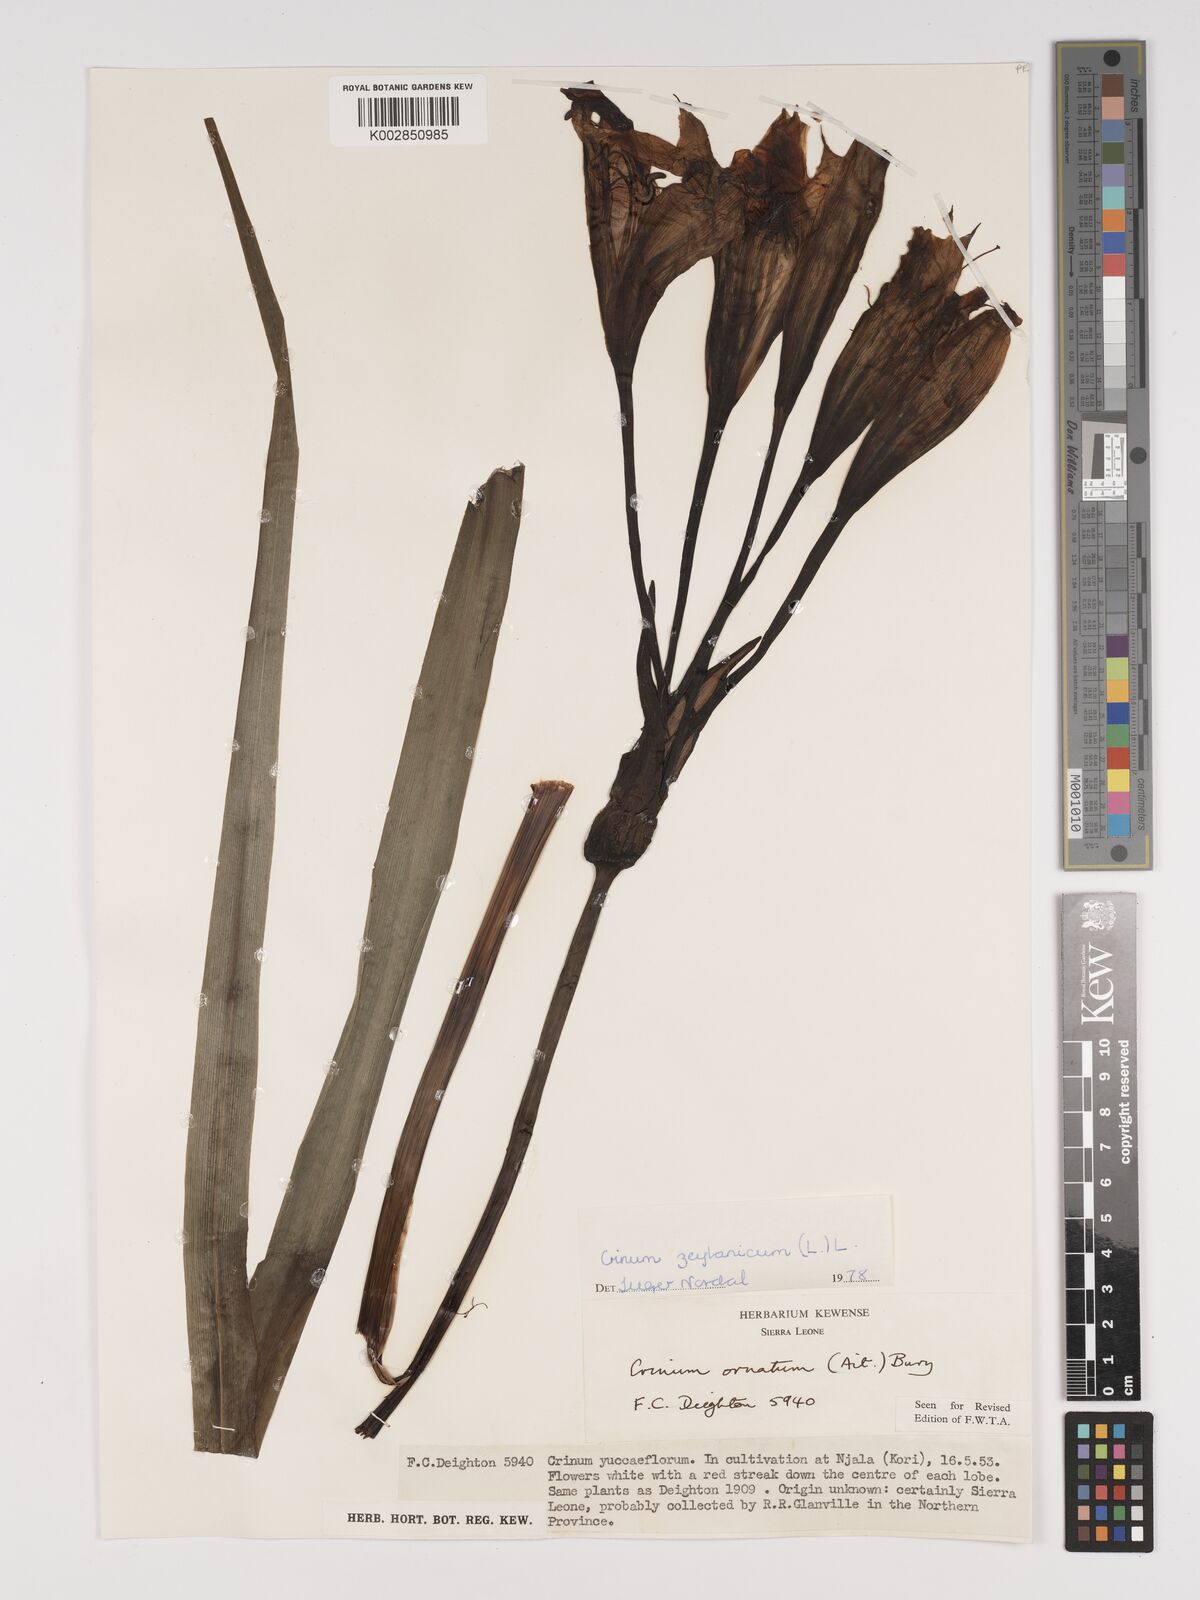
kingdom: Plantae
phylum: Tracheophyta
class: Liliopsida
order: Asparagales
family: Amaryllidaceae
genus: Crinum
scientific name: Crinum ornatum
